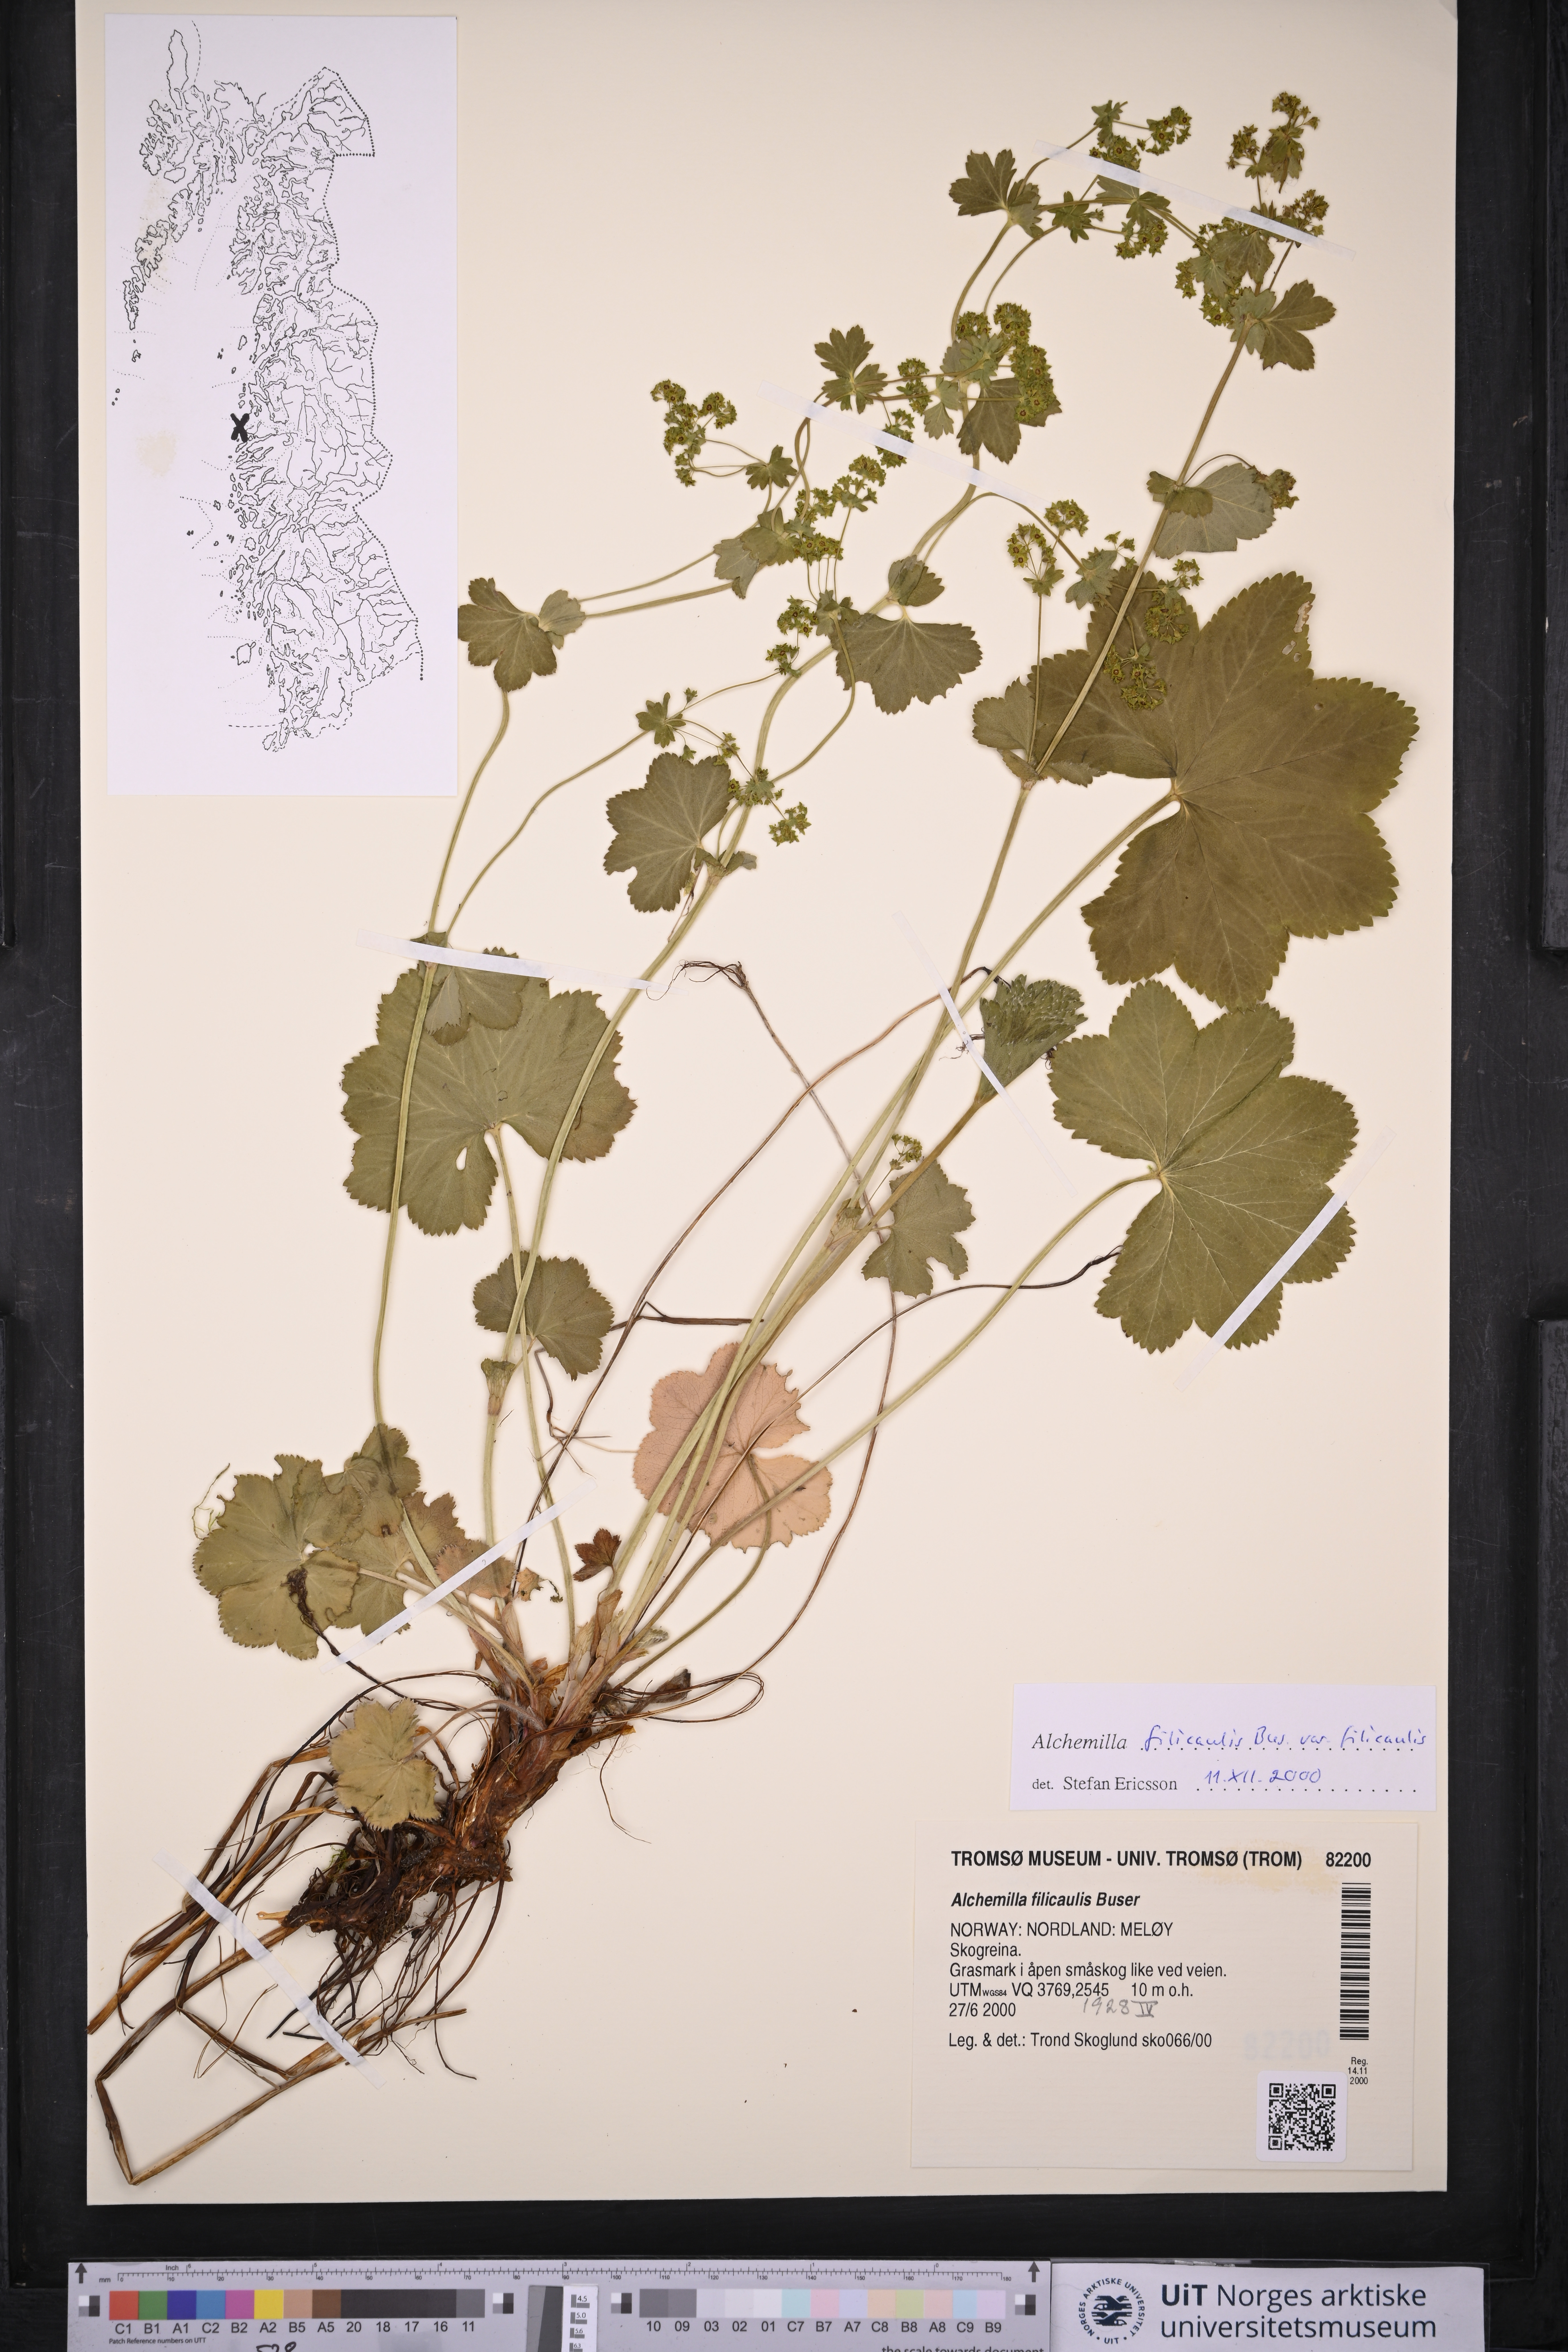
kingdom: Plantae
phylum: Tracheophyta
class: Magnoliopsida
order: Rosales
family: Rosaceae
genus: Alchemilla
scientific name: Alchemilla filicaulis
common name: Hairy lady's-mantle
